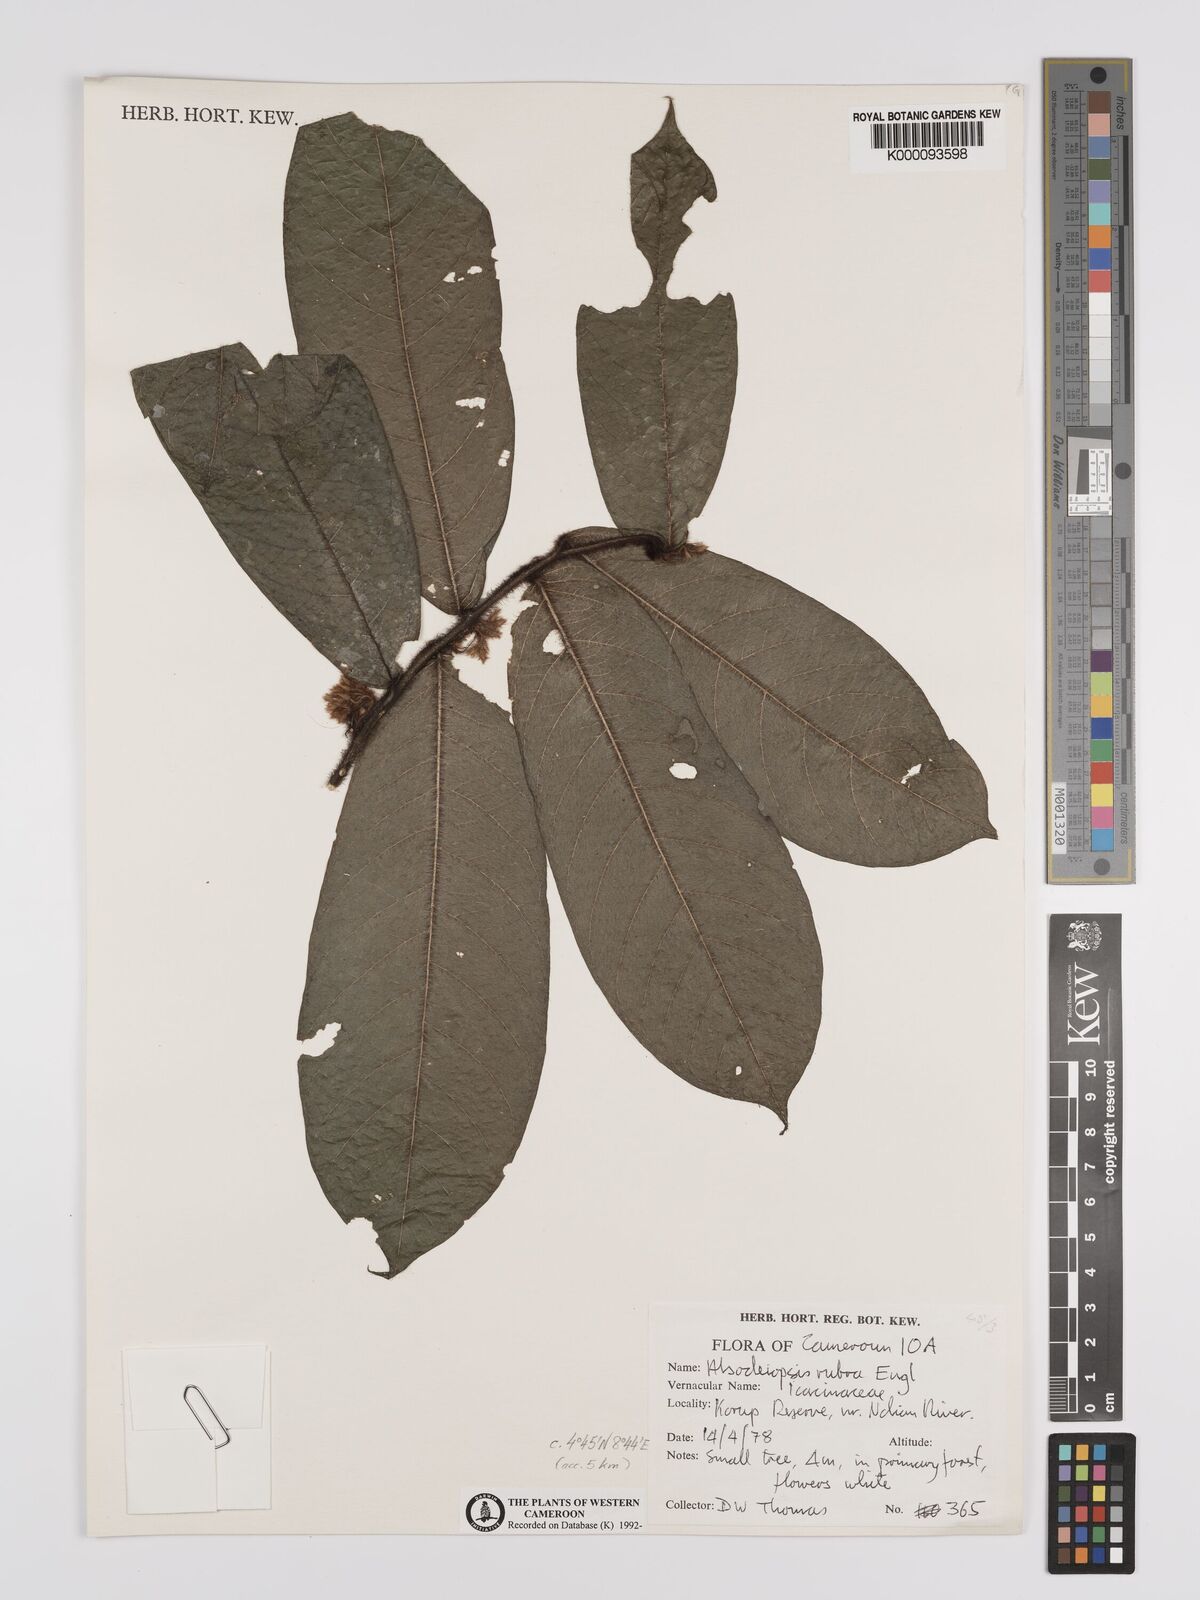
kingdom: Plantae
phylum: Tracheophyta
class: Magnoliopsida
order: Icacinales
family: Icacinaceae
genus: Alsodeiopsis
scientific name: Alsodeiopsis rubra
